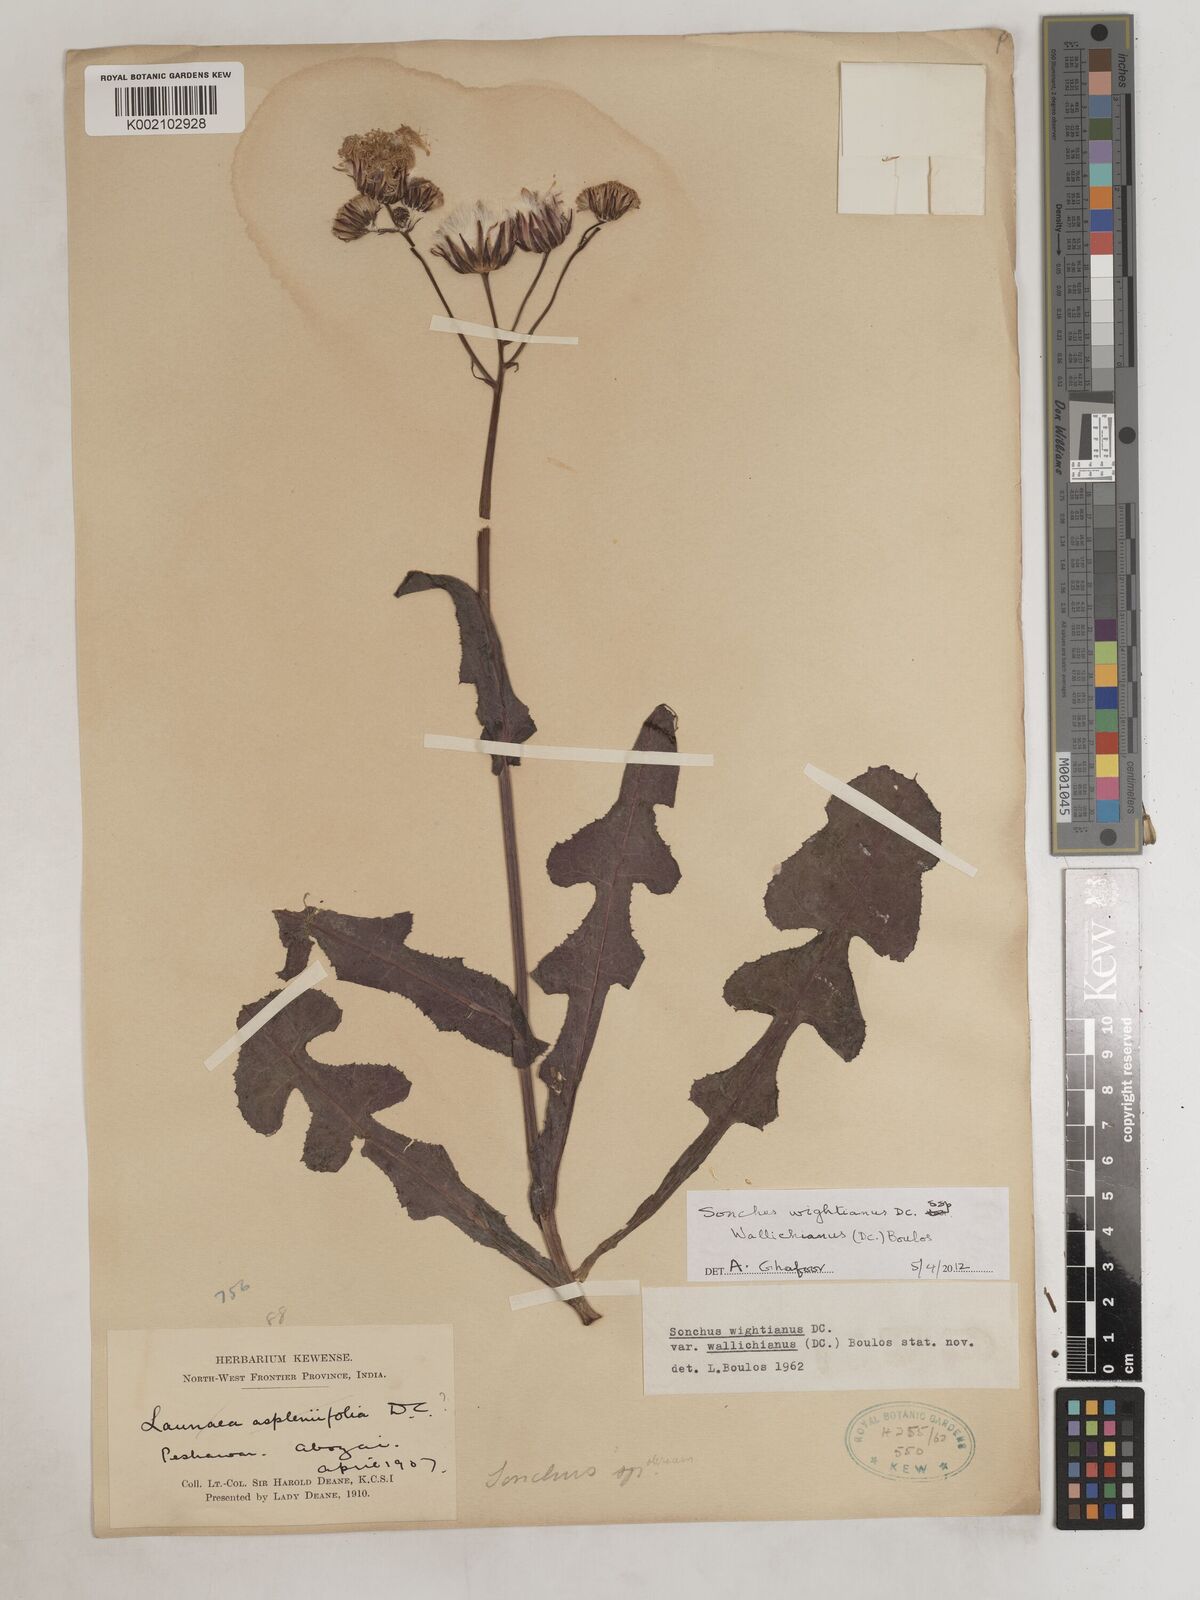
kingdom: Plantae
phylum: Tracheophyta
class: Magnoliopsida
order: Asterales
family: Asteraceae
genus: Sonchus
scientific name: Sonchus arvensis
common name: Perennial sow-thistle
